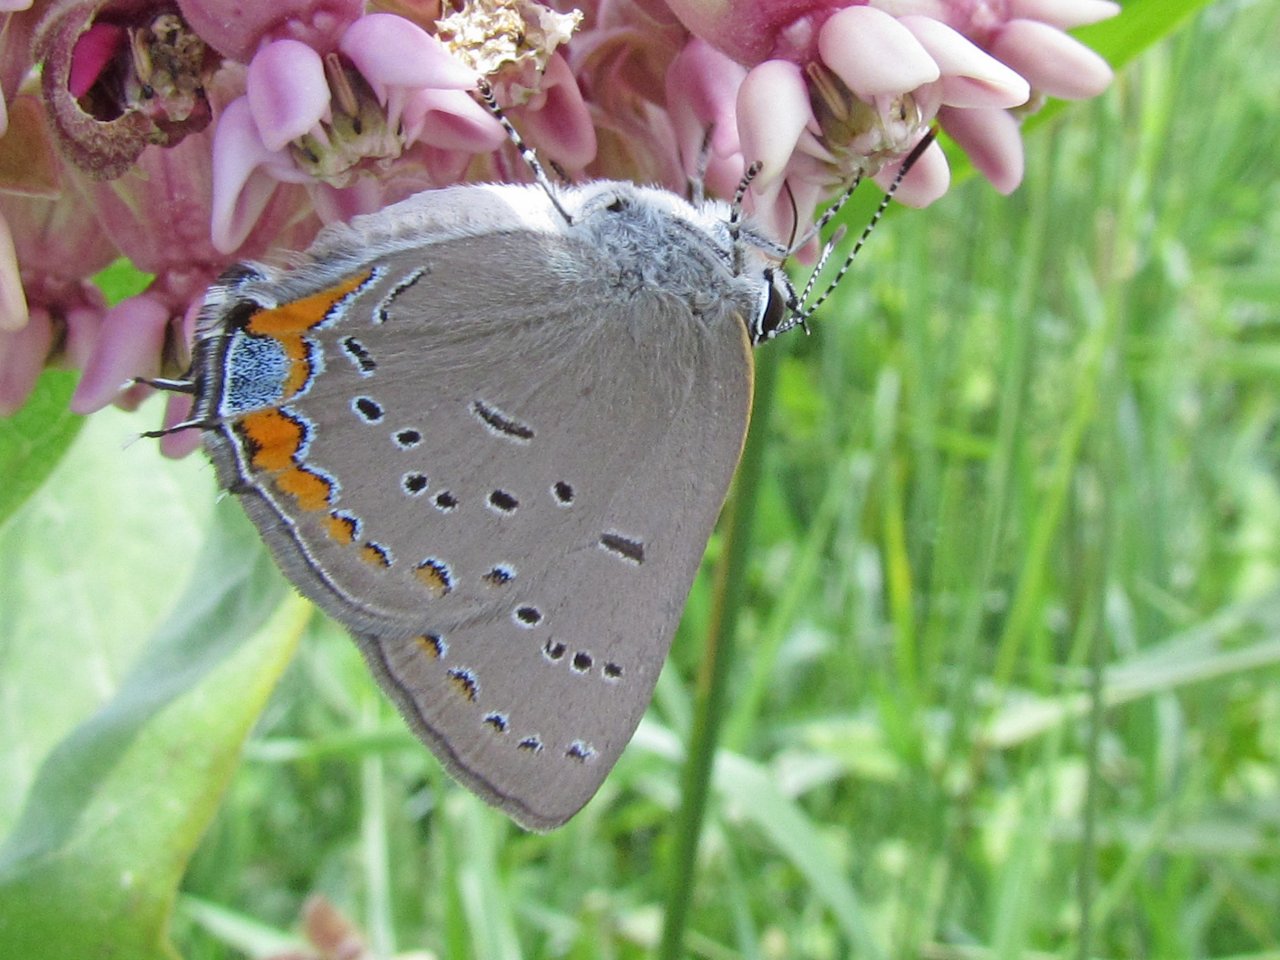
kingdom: Animalia
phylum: Arthropoda
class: Insecta
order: Lepidoptera
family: Lycaenidae
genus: Strymon
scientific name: Strymon acadica
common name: Acadian Hairstreak
